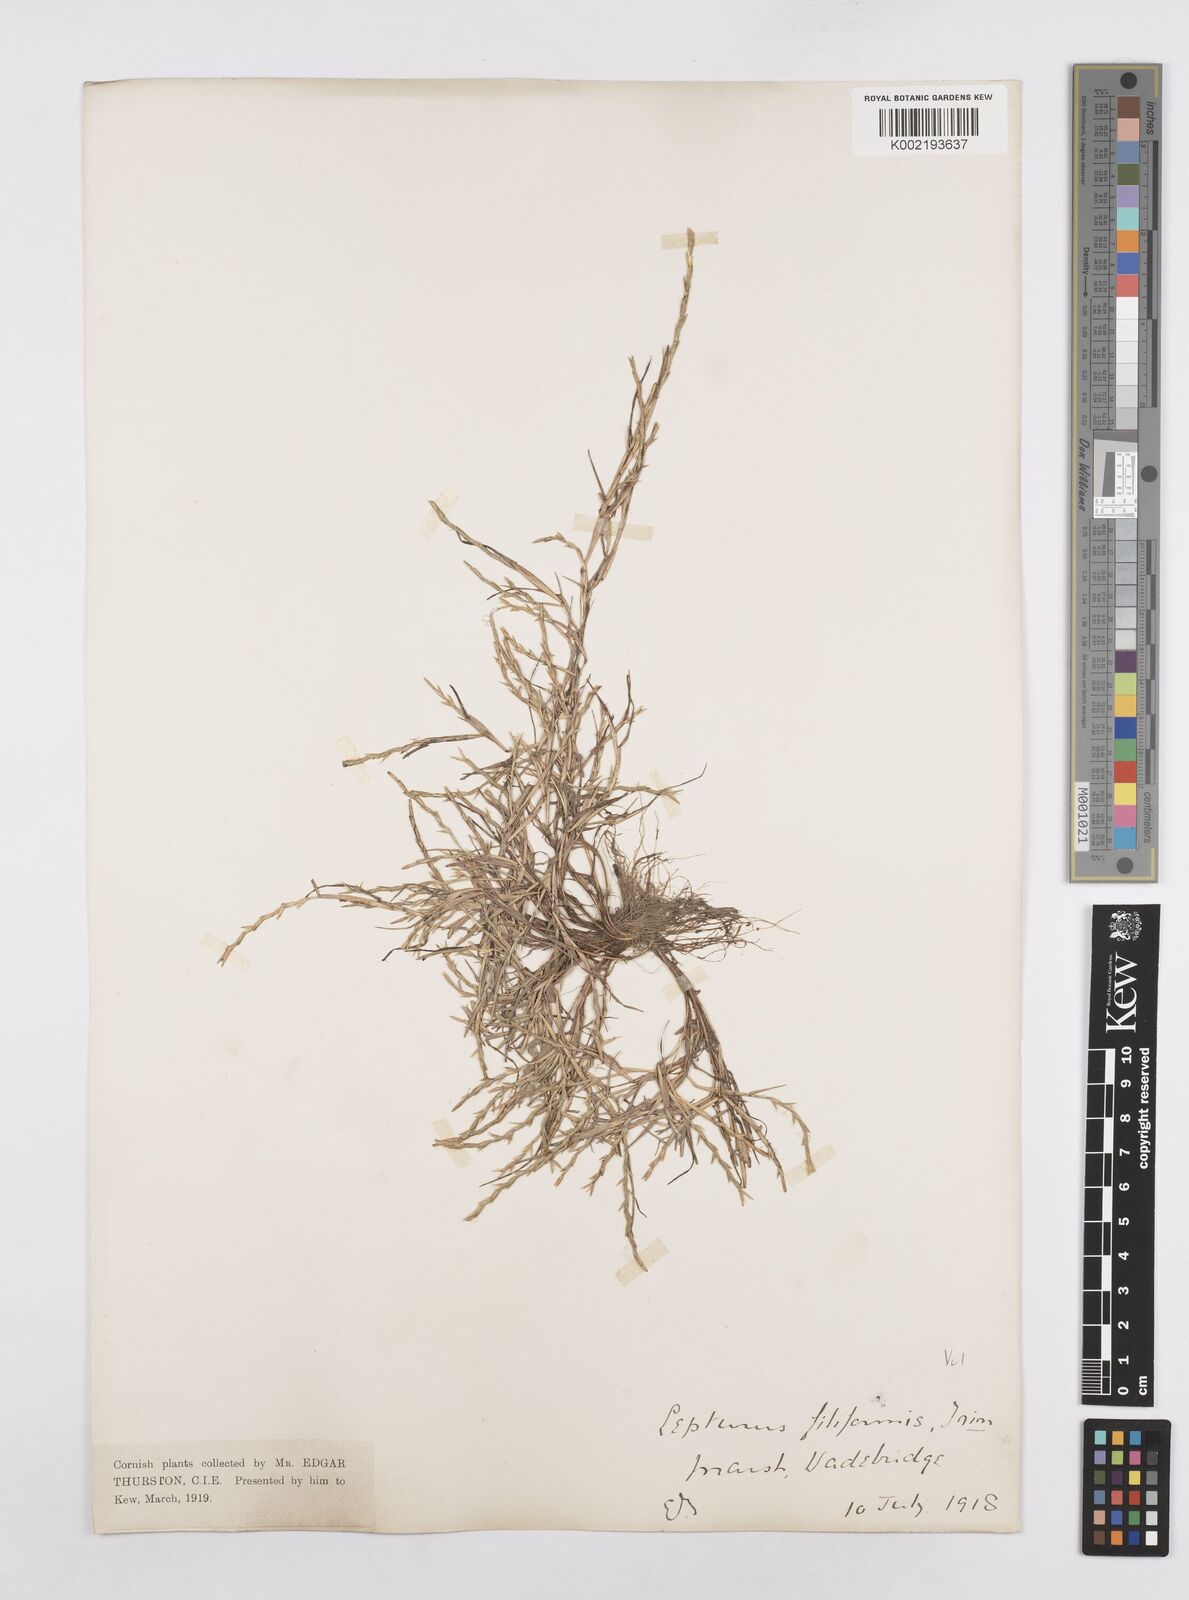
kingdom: Plantae
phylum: Tracheophyta
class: Liliopsida
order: Poales
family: Poaceae
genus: Parapholis
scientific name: Parapholis strigosa
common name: Hard-grass
